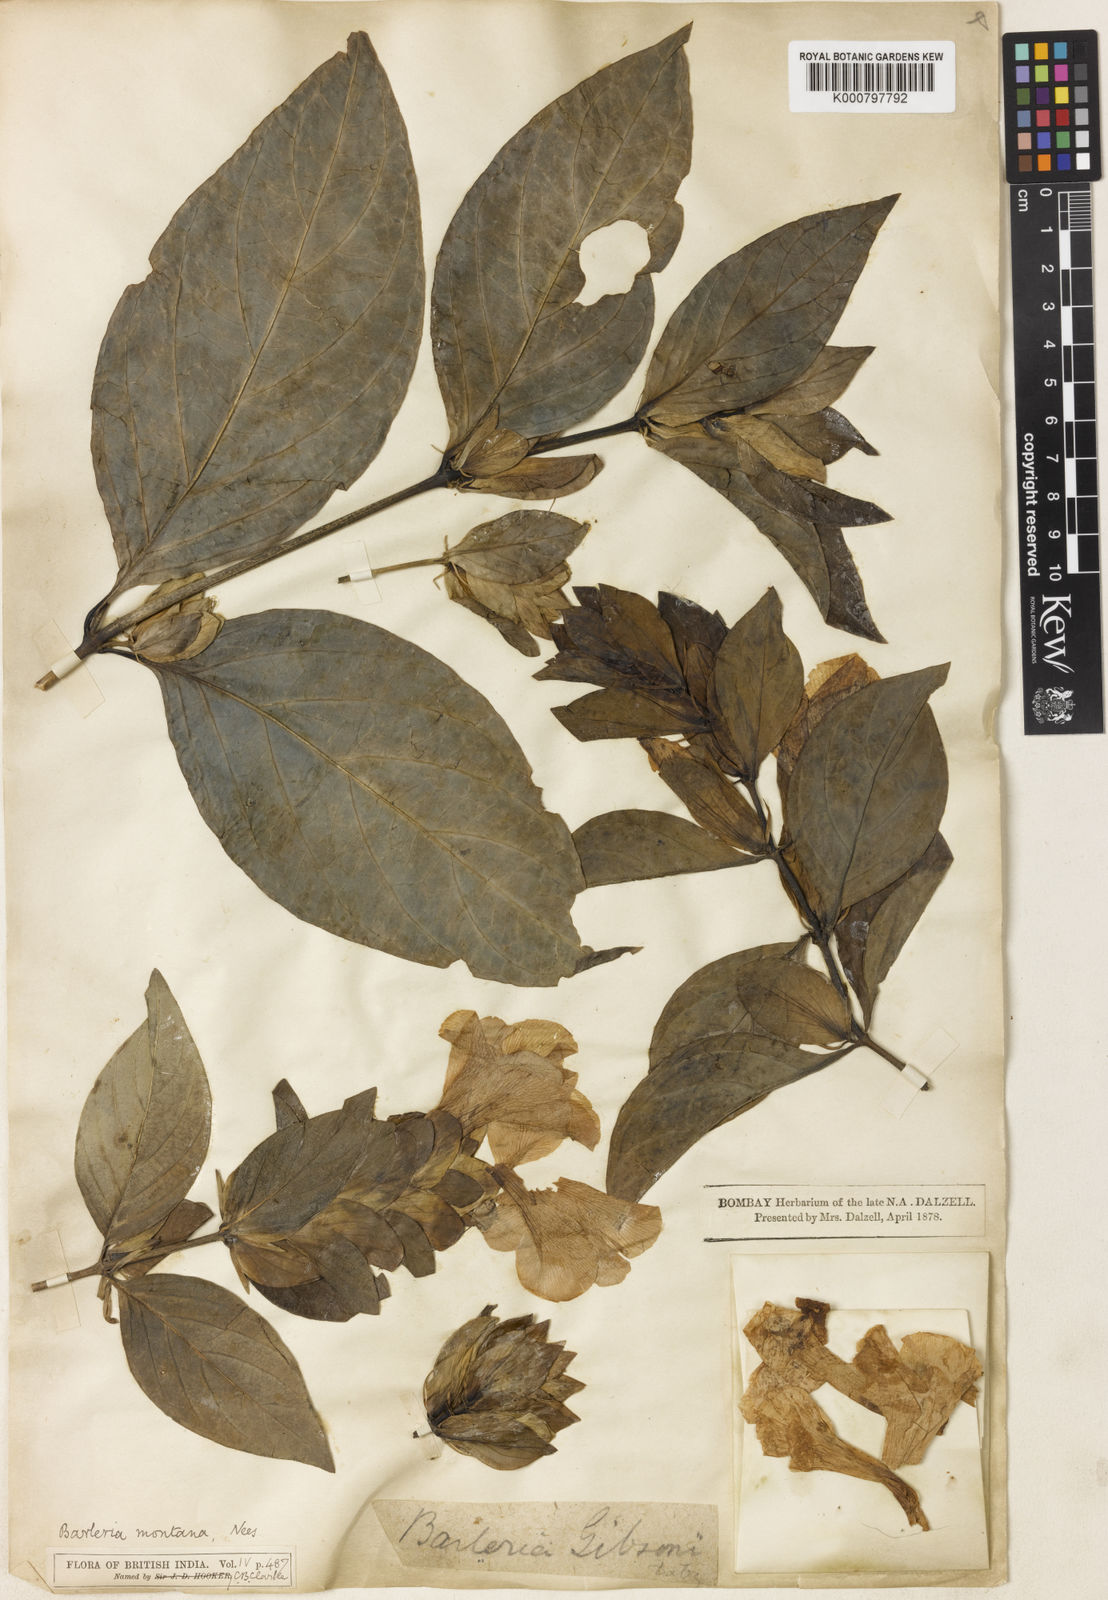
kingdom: Plantae
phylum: Tracheophyta
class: Magnoliopsida
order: Lamiales
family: Acanthaceae
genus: Barleria
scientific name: Barleria gibsonii
